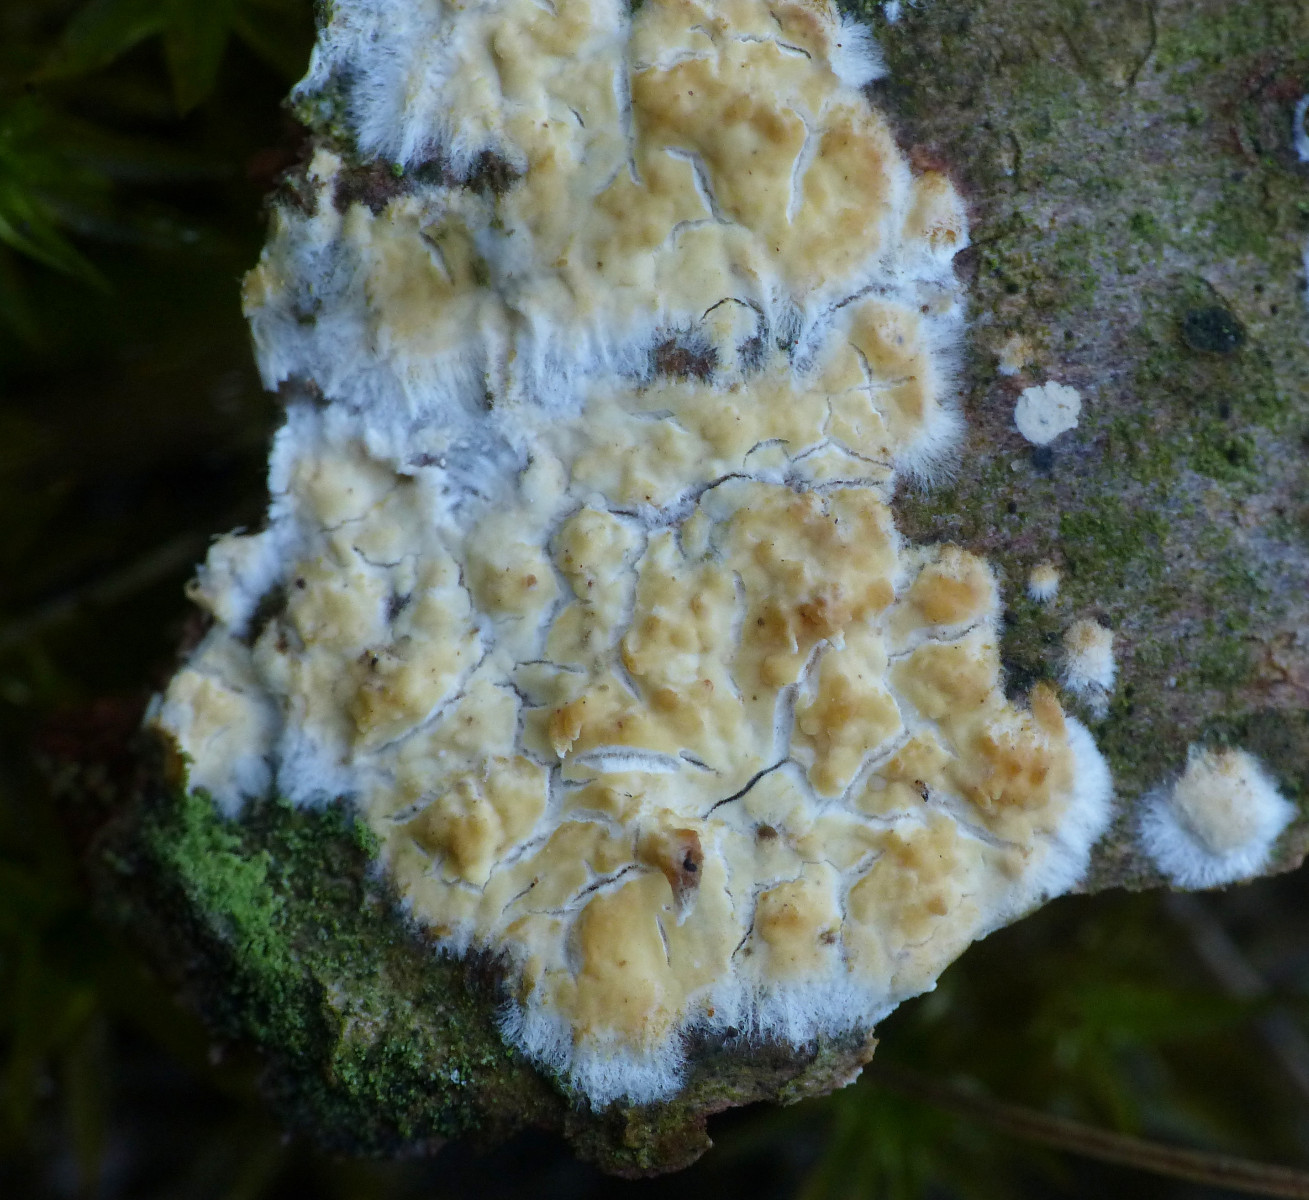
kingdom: Fungi
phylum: Basidiomycota
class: Agaricomycetes
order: Corticiales
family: Corticiaceae
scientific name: Corticiaceae
